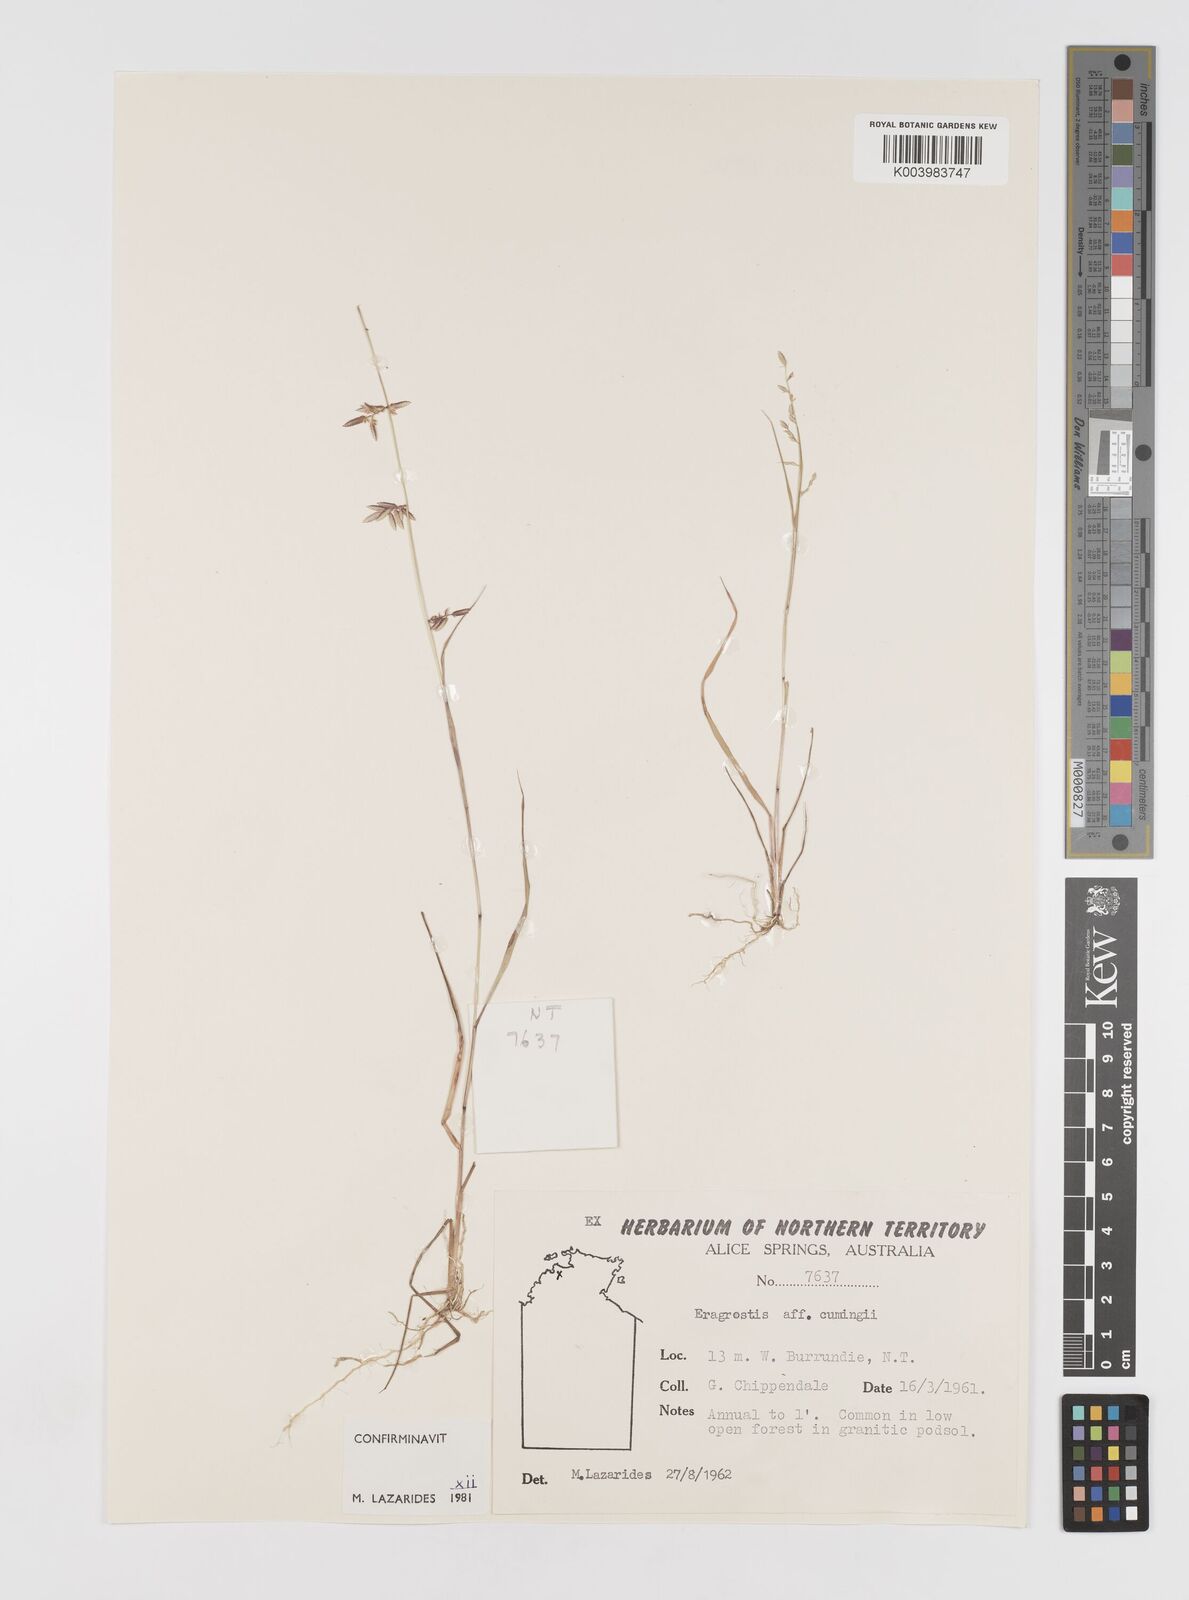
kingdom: Plantae
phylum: Tracheophyta
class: Liliopsida
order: Poales
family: Poaceae
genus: Eragrostis
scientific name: Eragrostis cumingii
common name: Cuming's lovegrass
